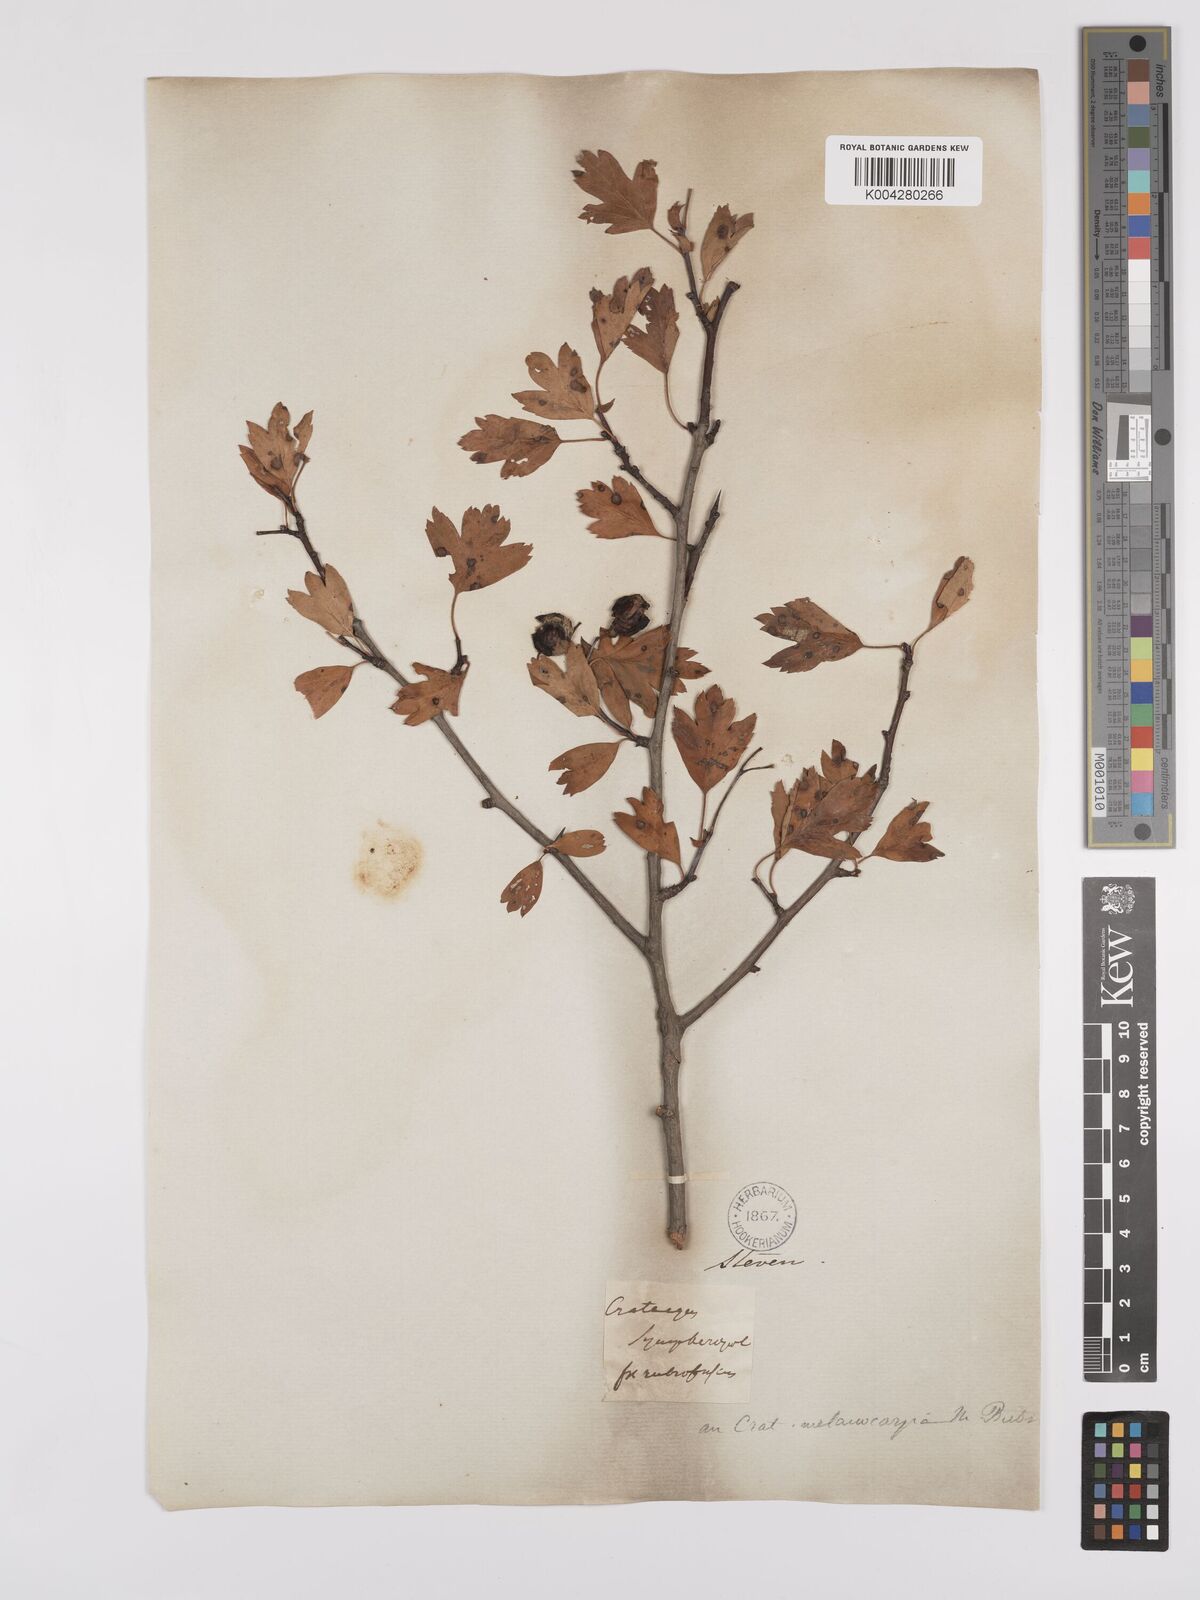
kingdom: Plantae
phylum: Tracheophyta
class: Magnoliopsida
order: Rosales
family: Rosaceae
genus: Crataegus
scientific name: Crataegus meyeri
